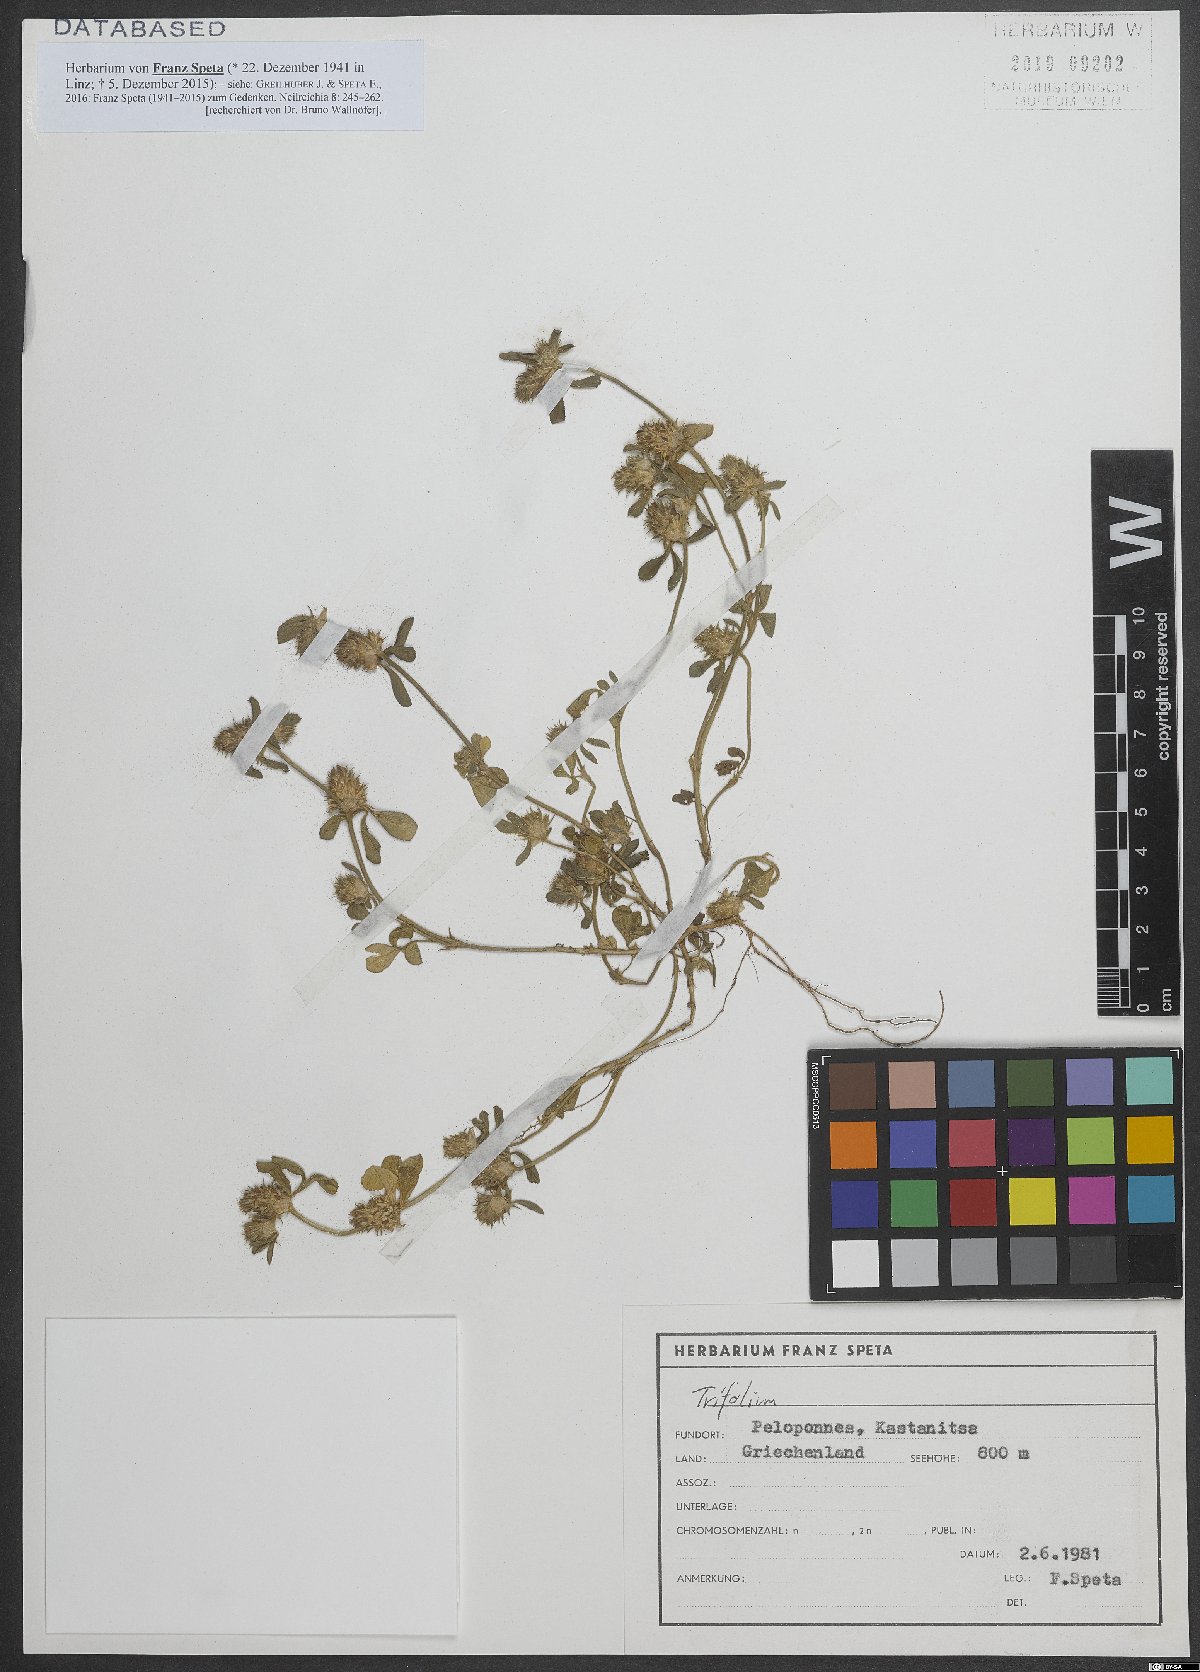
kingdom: Plantae
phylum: Tracheophyta
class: Magnoliopsida
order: Fabales
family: Fabaceae
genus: Trifolium
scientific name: Trifolium
